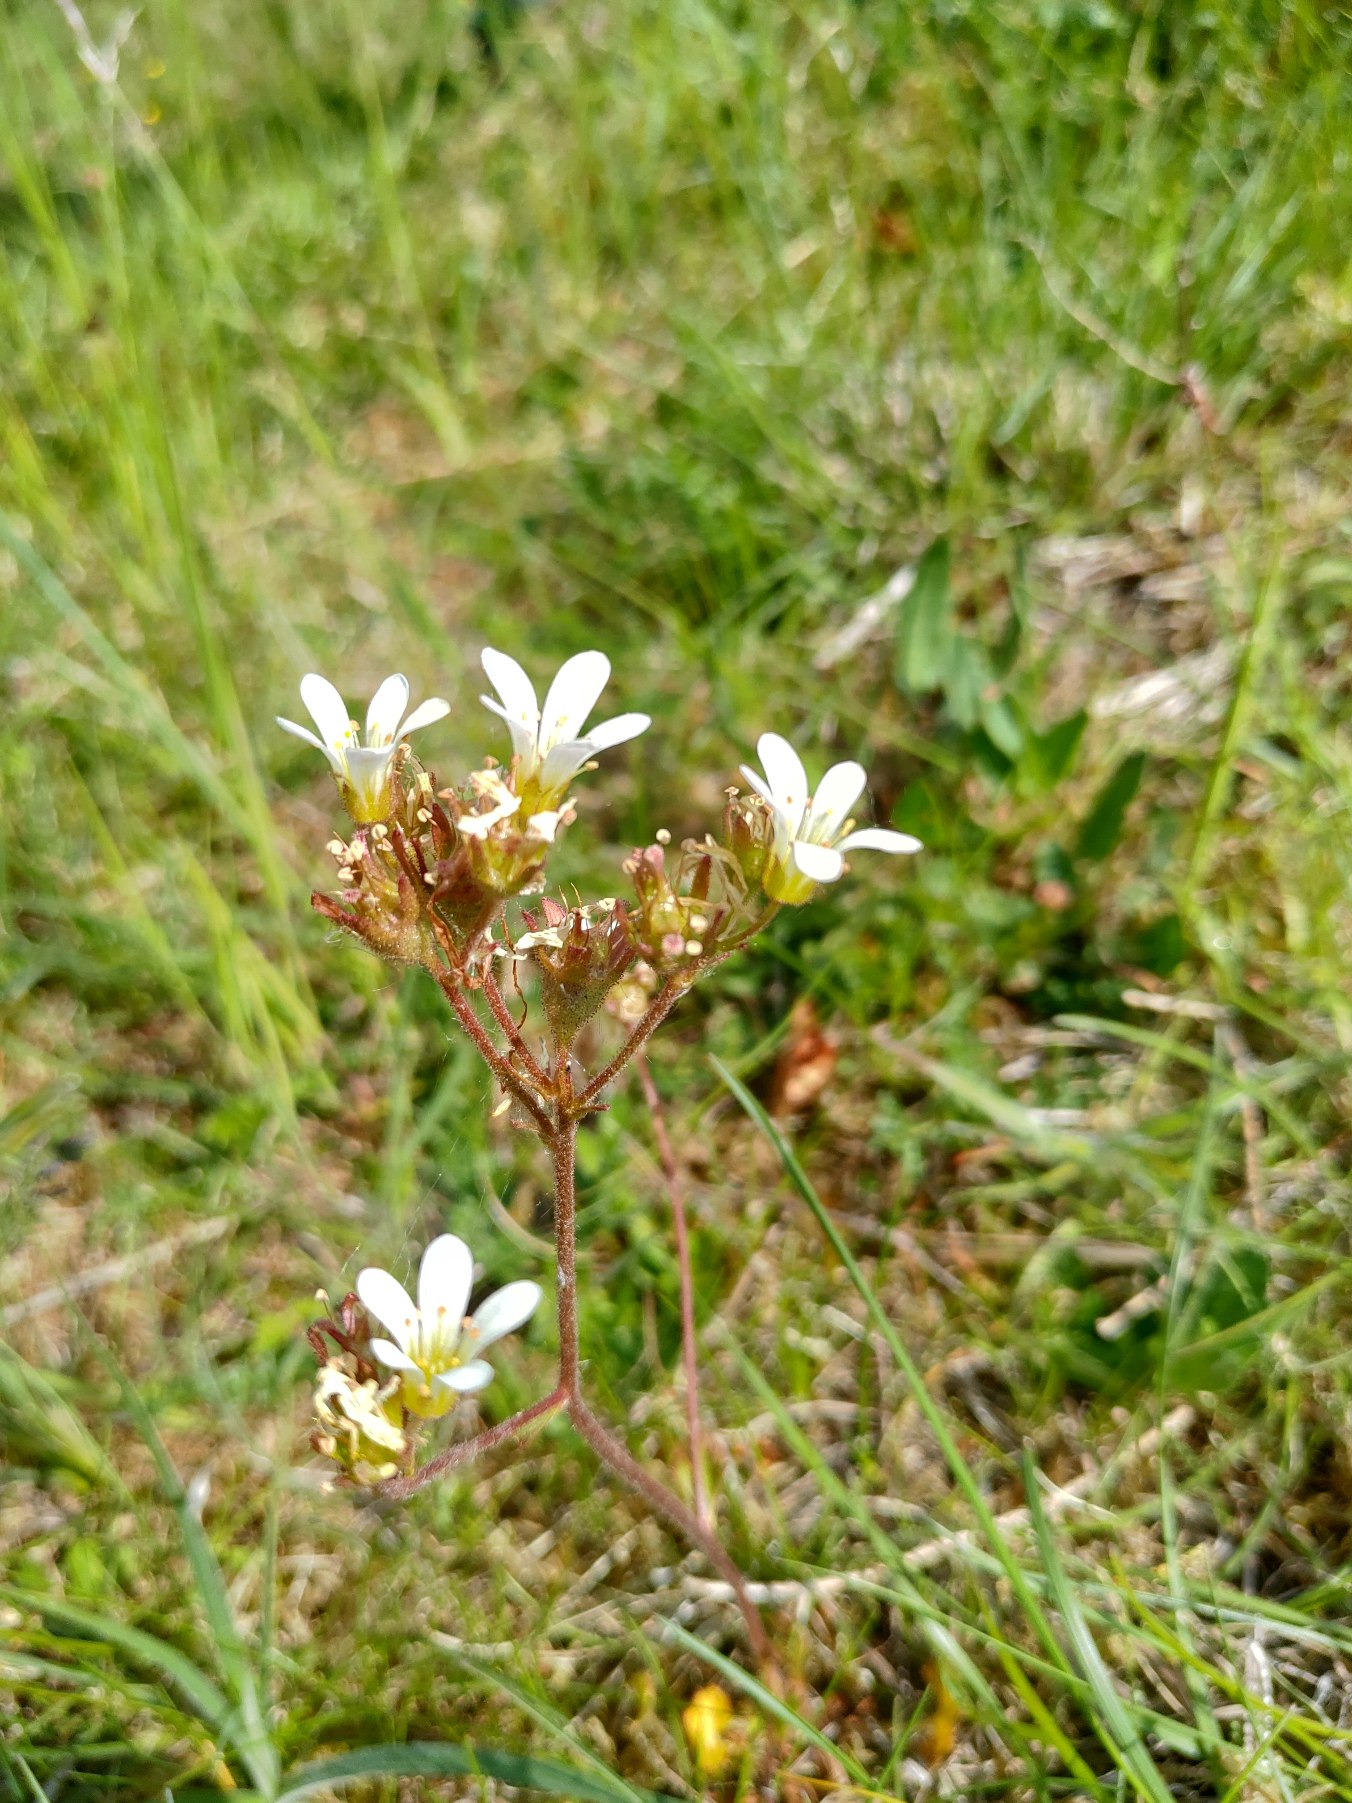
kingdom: Plantae
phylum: Tracheophyta
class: Magnoliopsida
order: Saxifragales
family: Saxifragaceae
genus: Saxifraga
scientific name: Saxifraga granulata
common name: Kornet stenbræk
